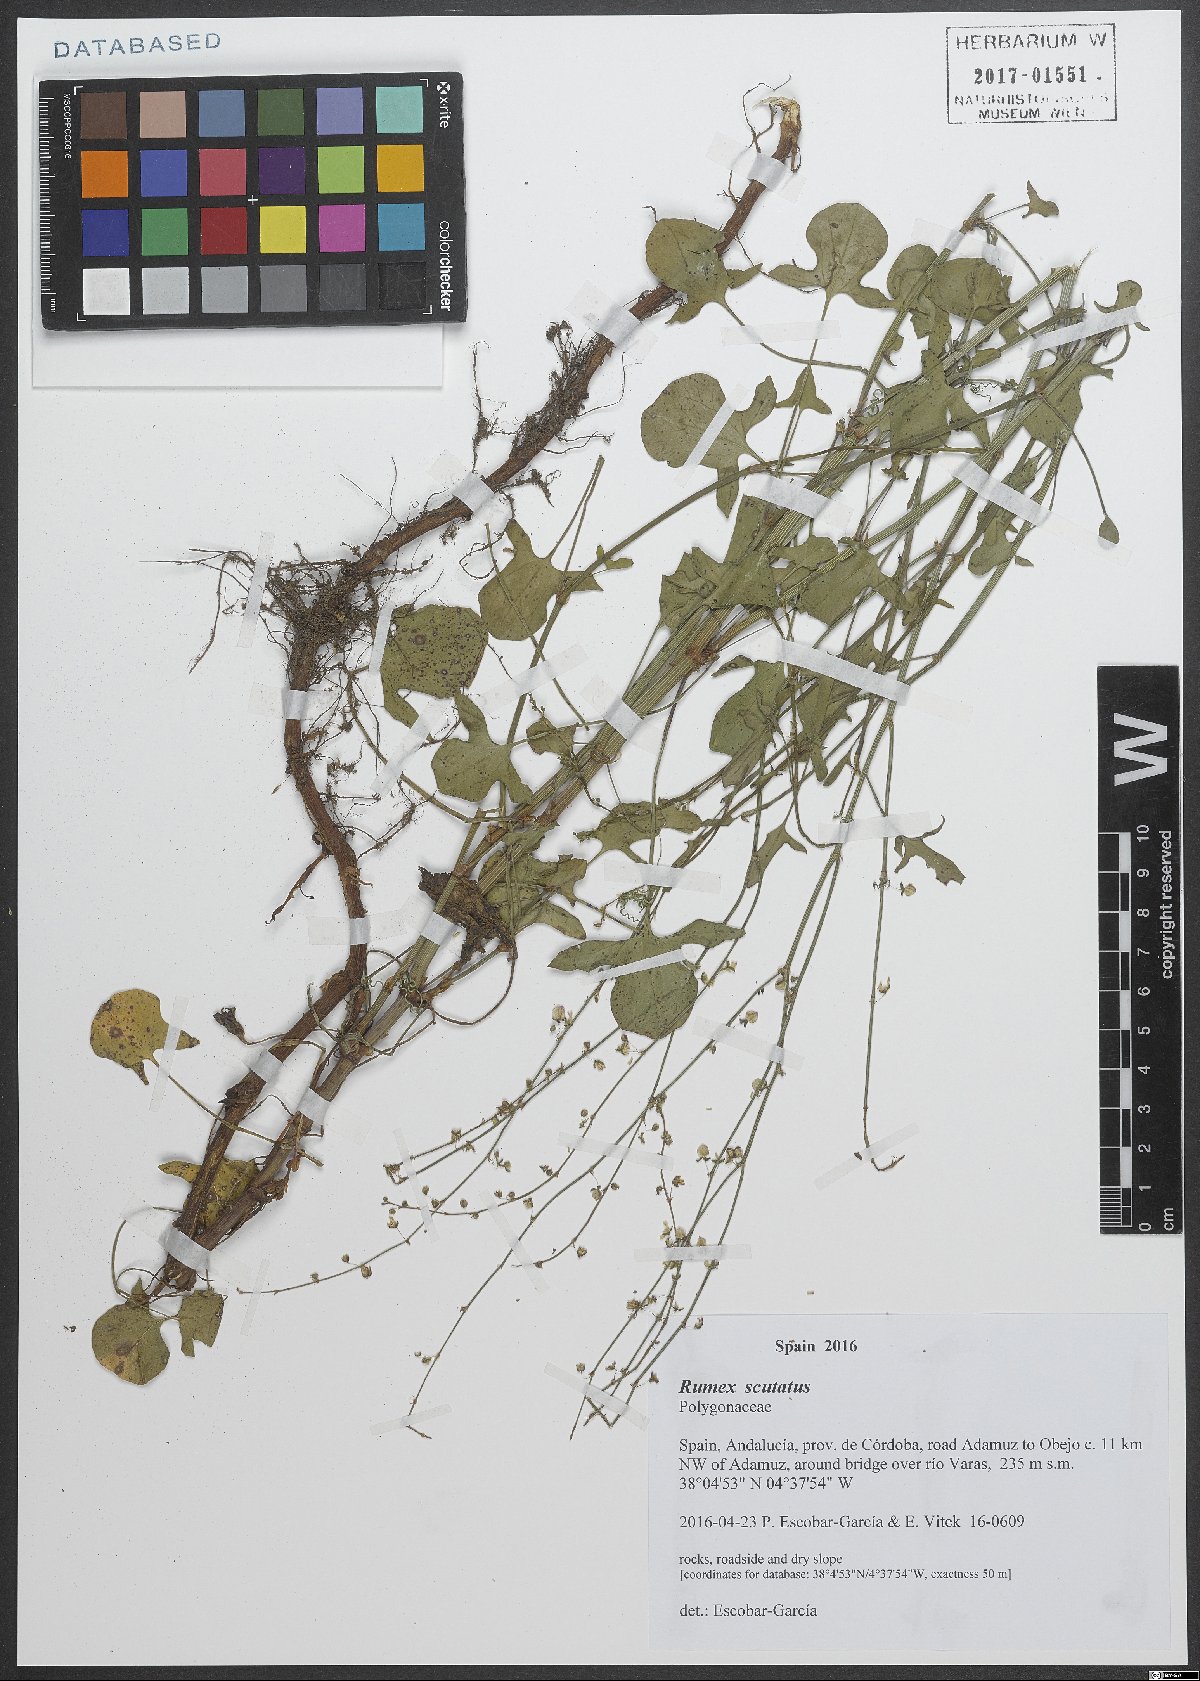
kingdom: Plantae
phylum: Tracheophyta
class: Magnoliopsida
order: Caryophyllales
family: Polygonaceae
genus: Rumex
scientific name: Rumex scutatus
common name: French sorrel
